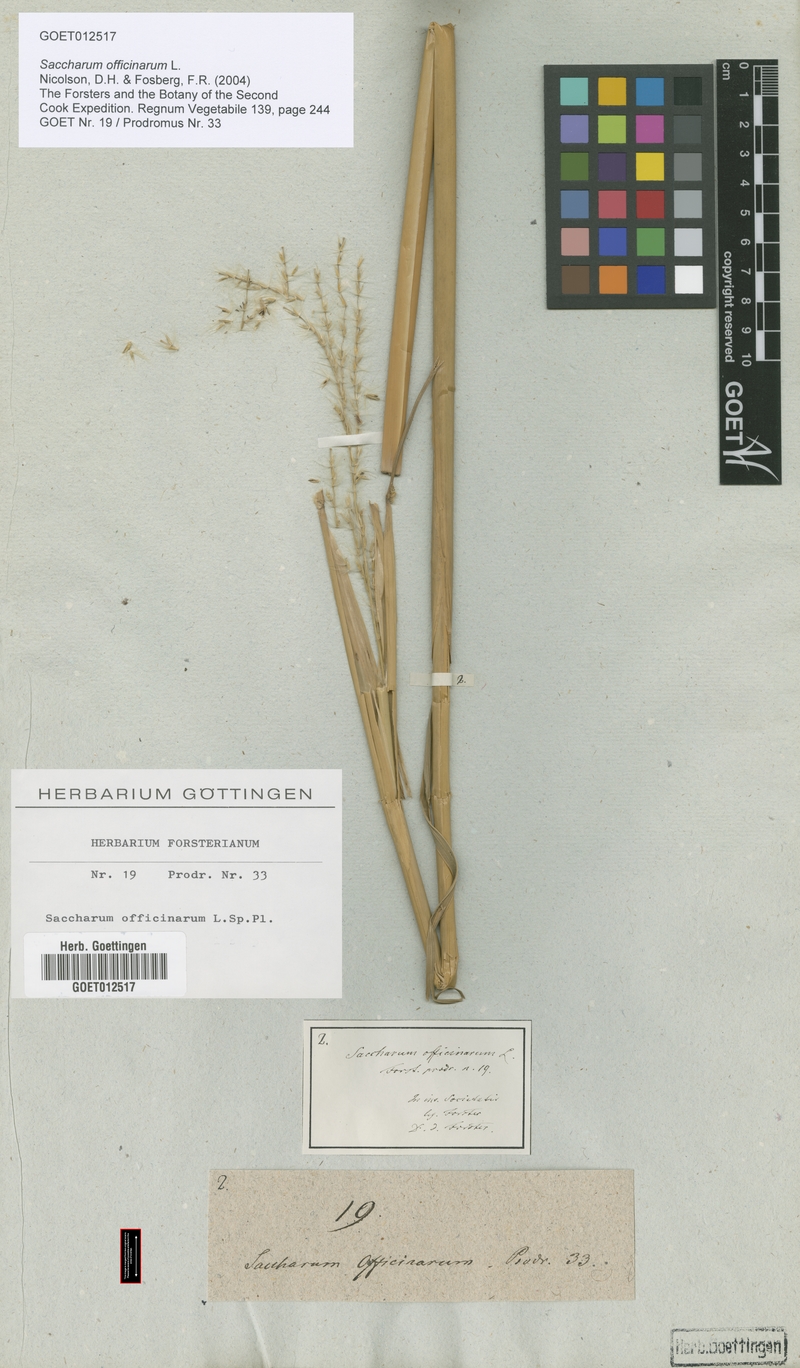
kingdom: Plantae
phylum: Tracheophyta
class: Liliopsida
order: Poales
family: Poaceae
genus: Saccharum
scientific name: Saccharum officinarum
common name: Sugarcane
